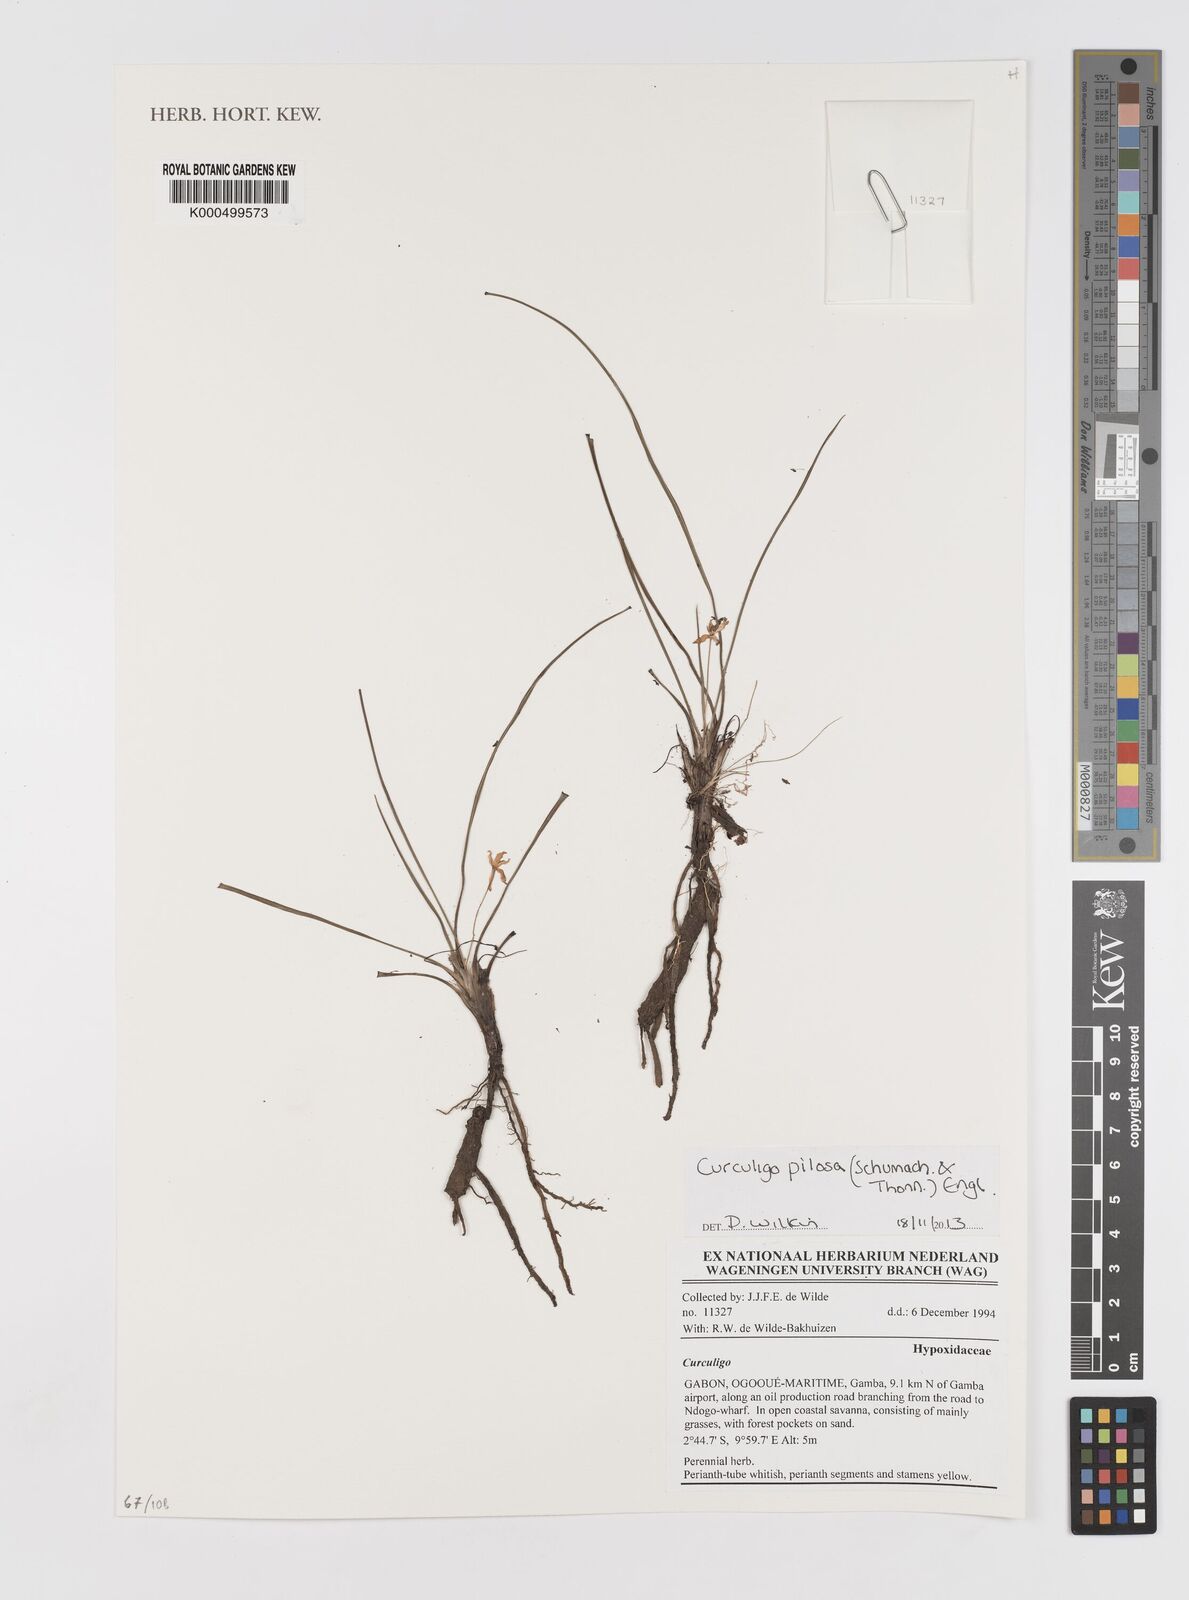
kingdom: Plantae
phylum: Tracheophyta
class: Liliopsida
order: Asparagales
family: Hypoxidaceae
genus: Curculigo
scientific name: Curculigo pilosa
